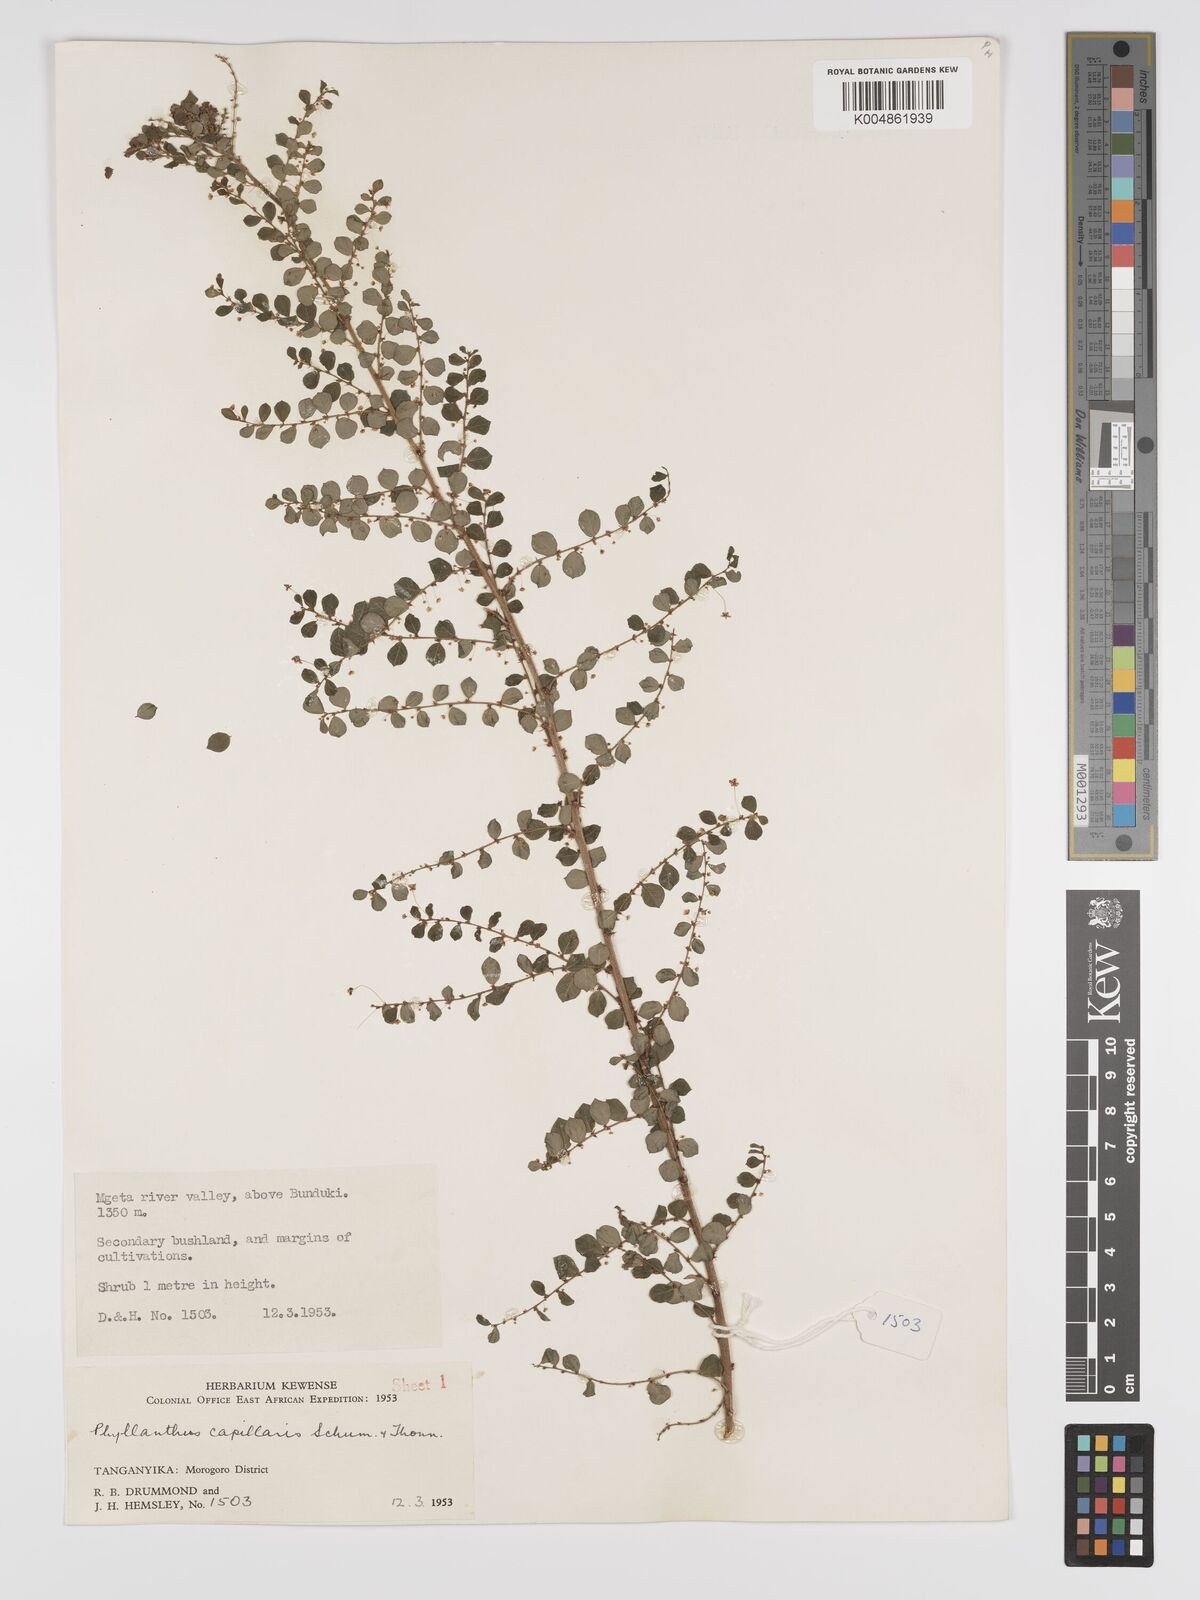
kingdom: Plantae
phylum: Tracheophyta
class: Magnoliopsida
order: Malpighiales
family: Phyllanthaceae
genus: Phyllanthus
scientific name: Phyllanthus nummulariifolius
